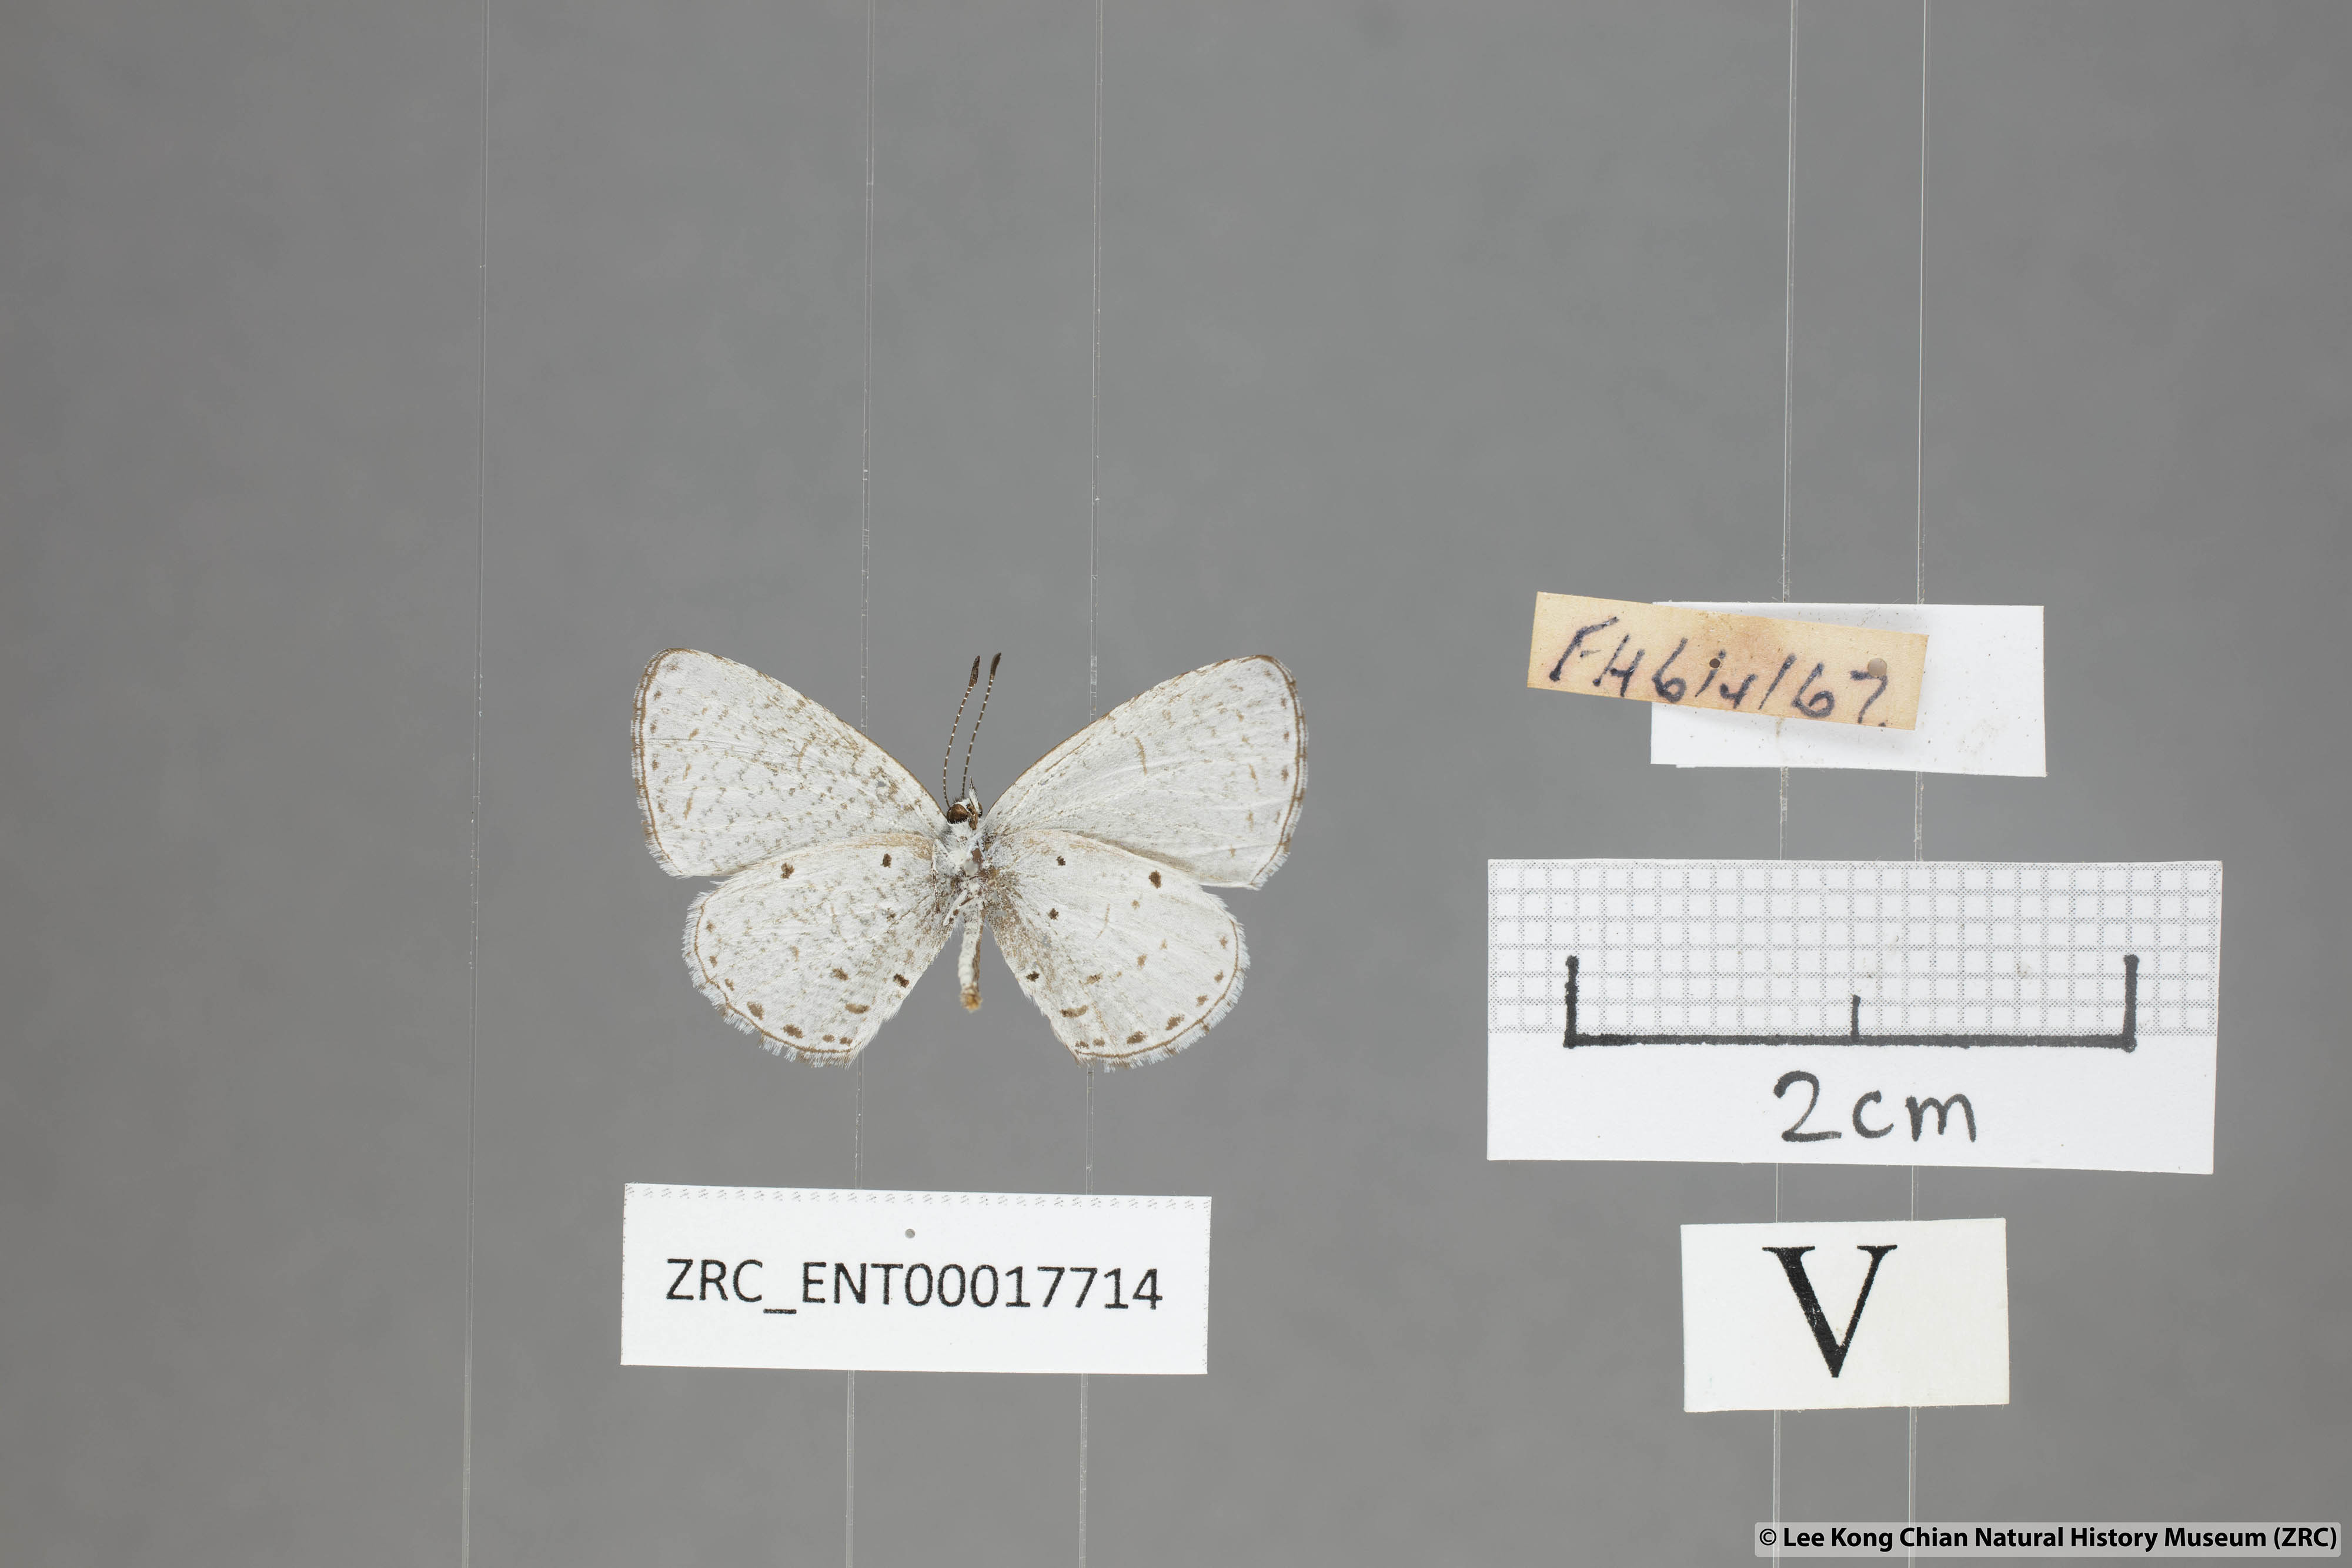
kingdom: Animalia
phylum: Arthropoda
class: Insecta
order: Lepidoptera
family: Lycaenidae
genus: Udara
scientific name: Udara
